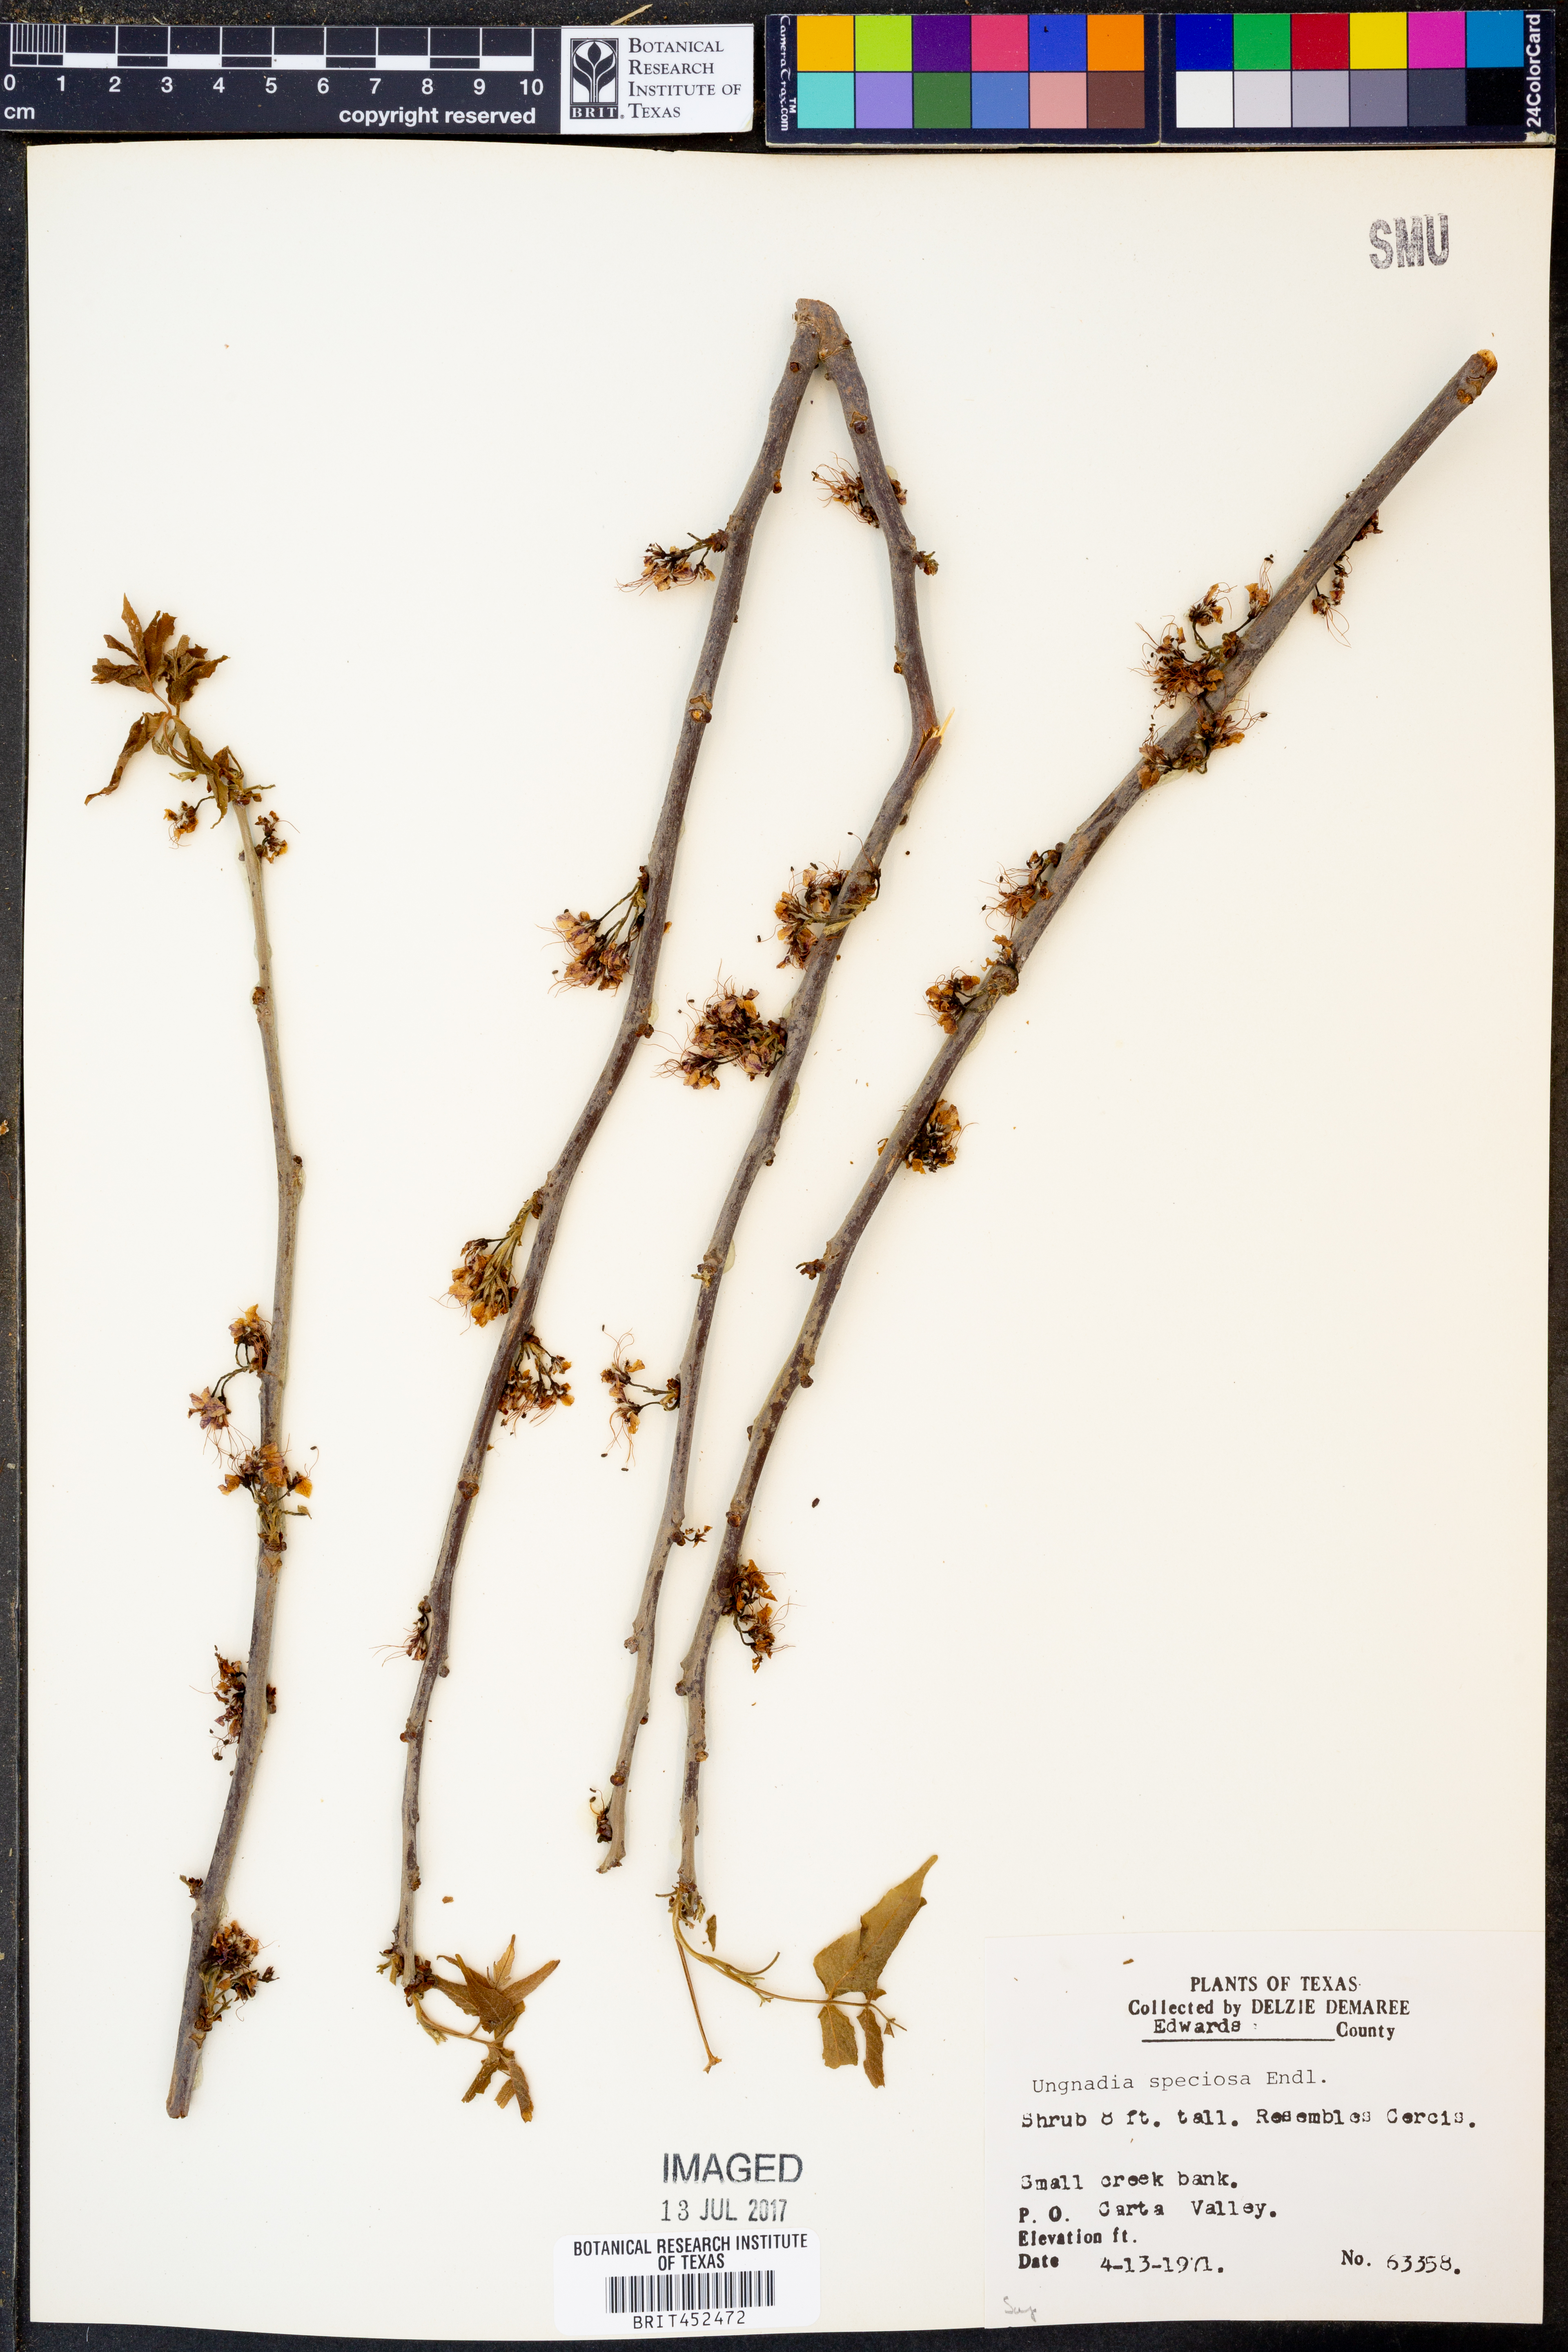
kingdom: Plantae
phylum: Tracheophyta
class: Magnoliopsida
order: Sapindales
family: Sapindaceae
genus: Ungnadia
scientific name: Ungnadia speciosa
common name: Texas-buckeye
